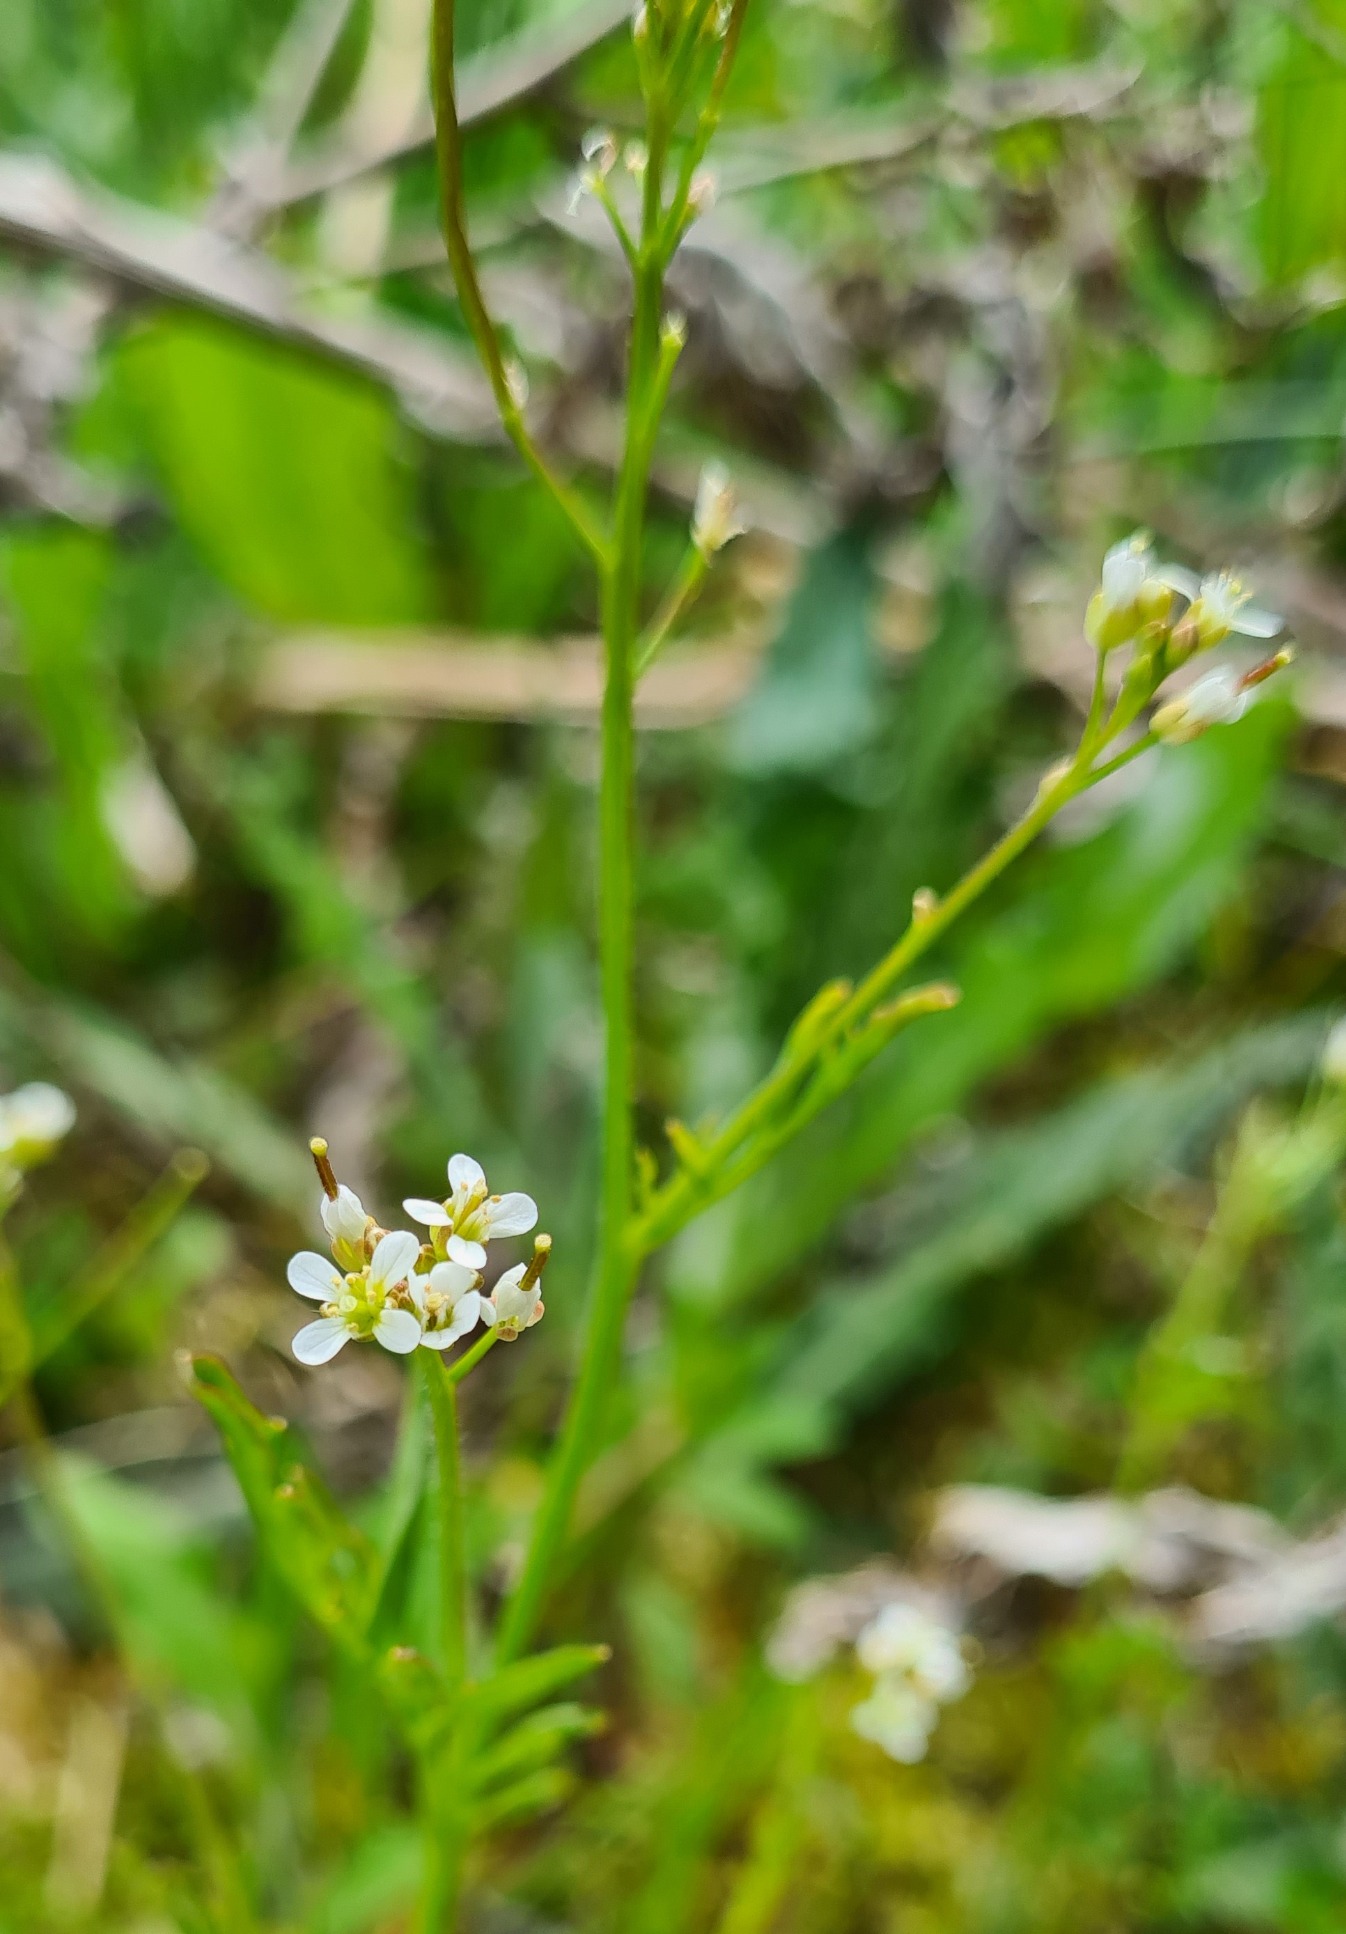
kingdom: Plantae
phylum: Tracheophyta
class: Magnoliopsida
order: Brassicales
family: Brassicaceae
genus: Cardamine
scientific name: Cardamine flexuosa
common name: Skov-springklap
